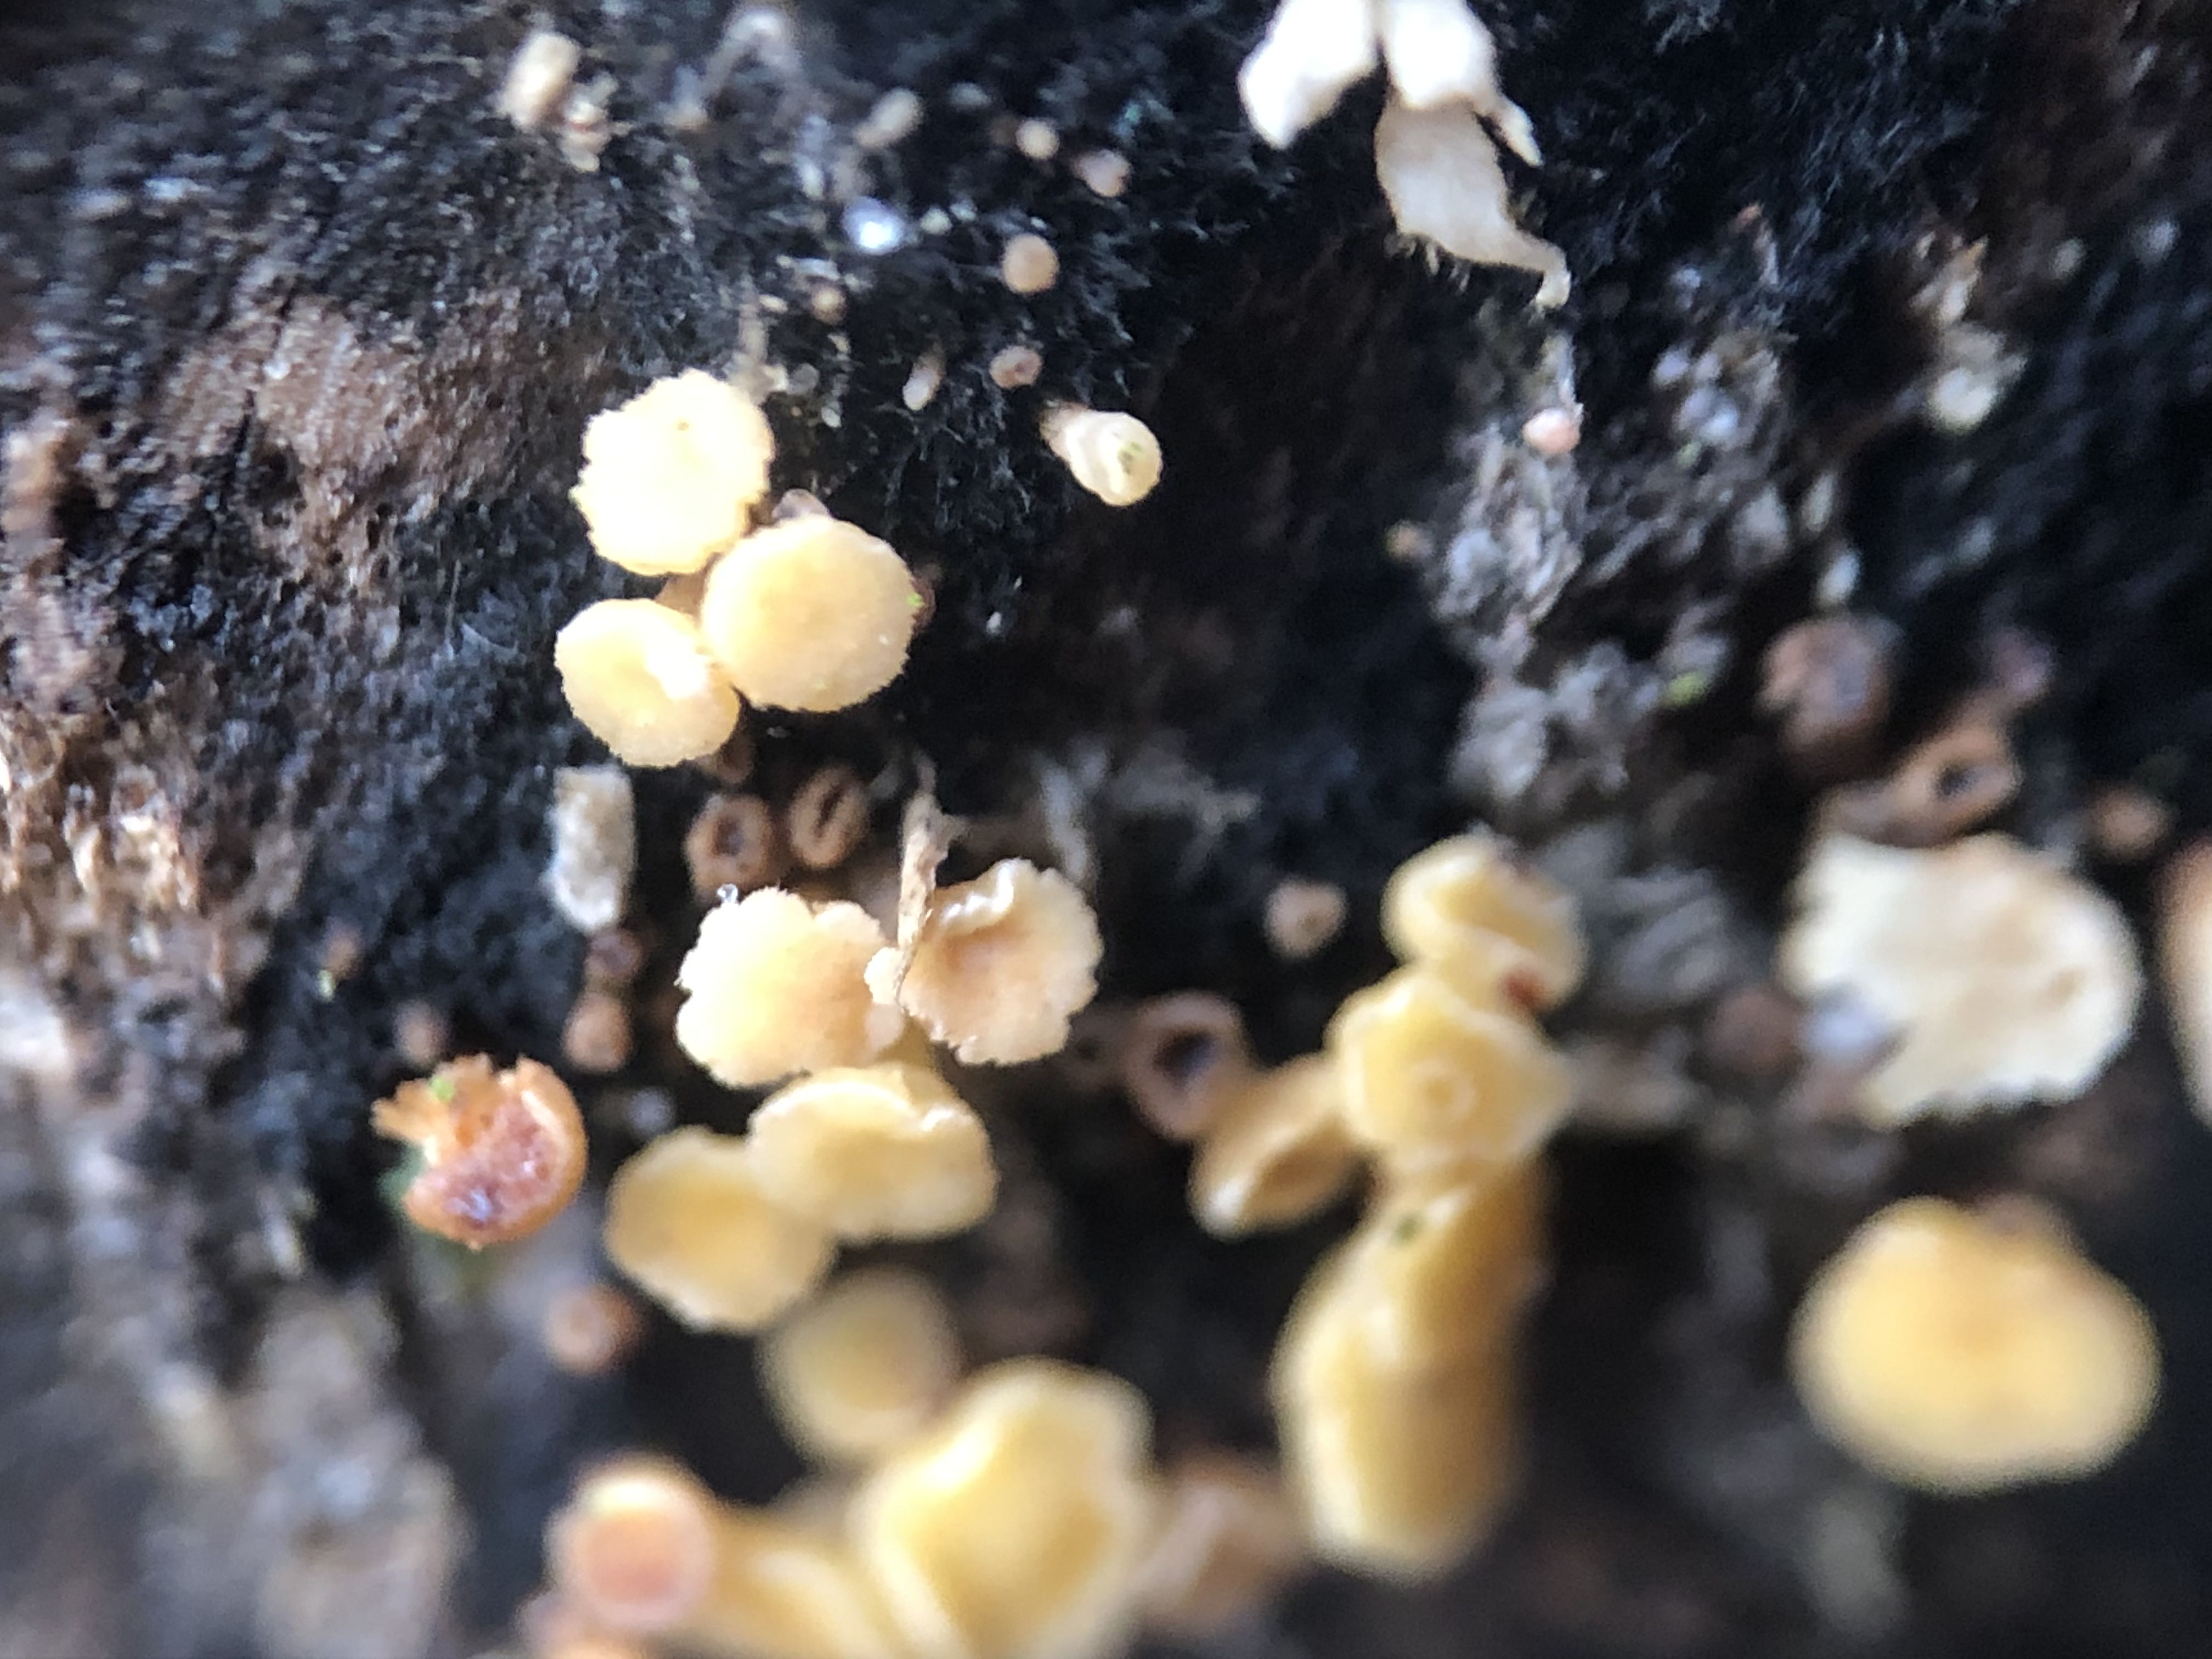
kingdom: Fungi
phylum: Ascomycota
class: Leotiomycetes
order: Helotiales
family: Helotiaceae
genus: Bispora
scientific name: Bispora pallescens
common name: måtte-snitskive
